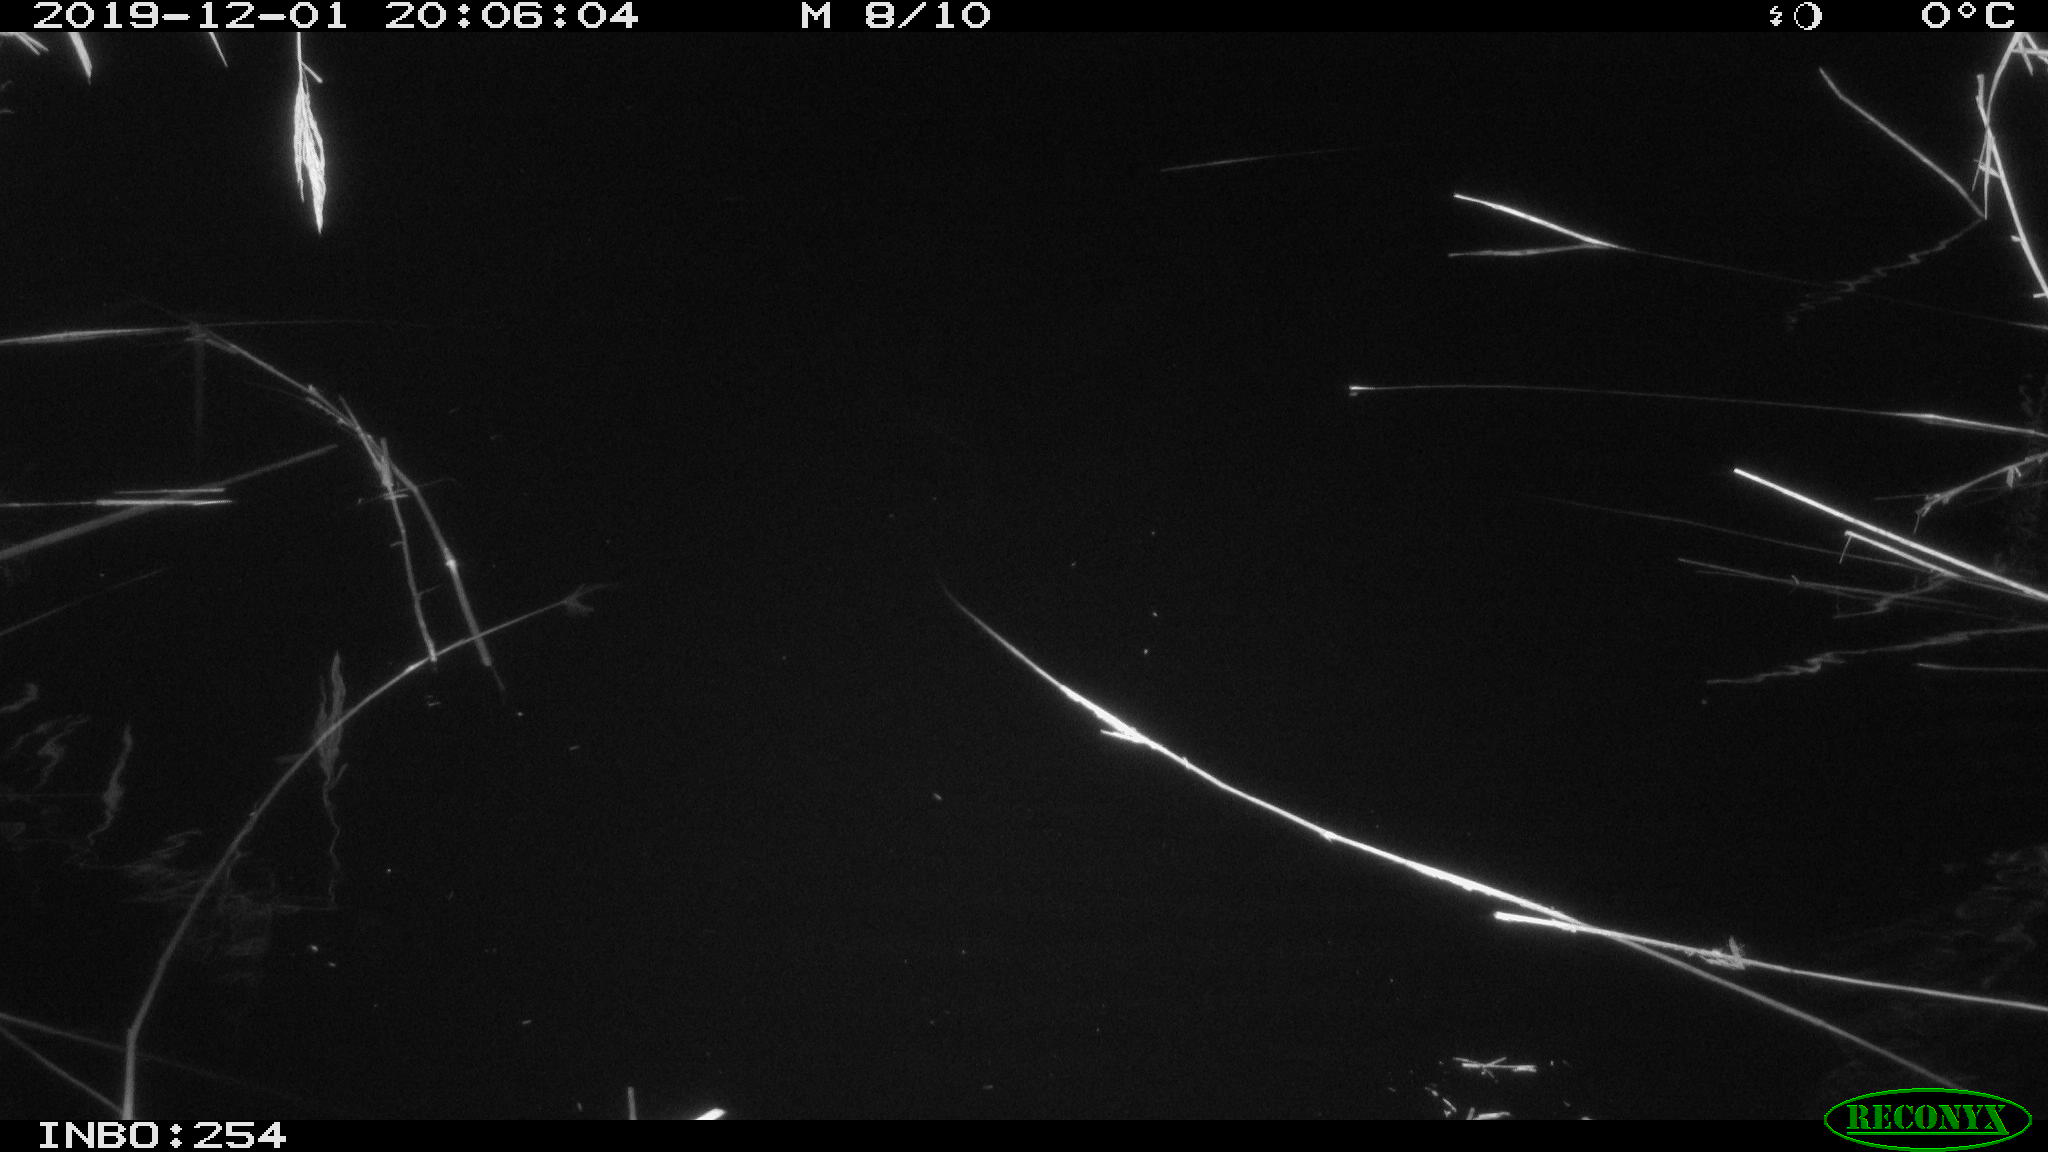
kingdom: Animalia
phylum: Chordata
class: Aves
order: Anseriformes
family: Anatidae
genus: Anas
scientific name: Anas platyrhynchos
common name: Mallard
